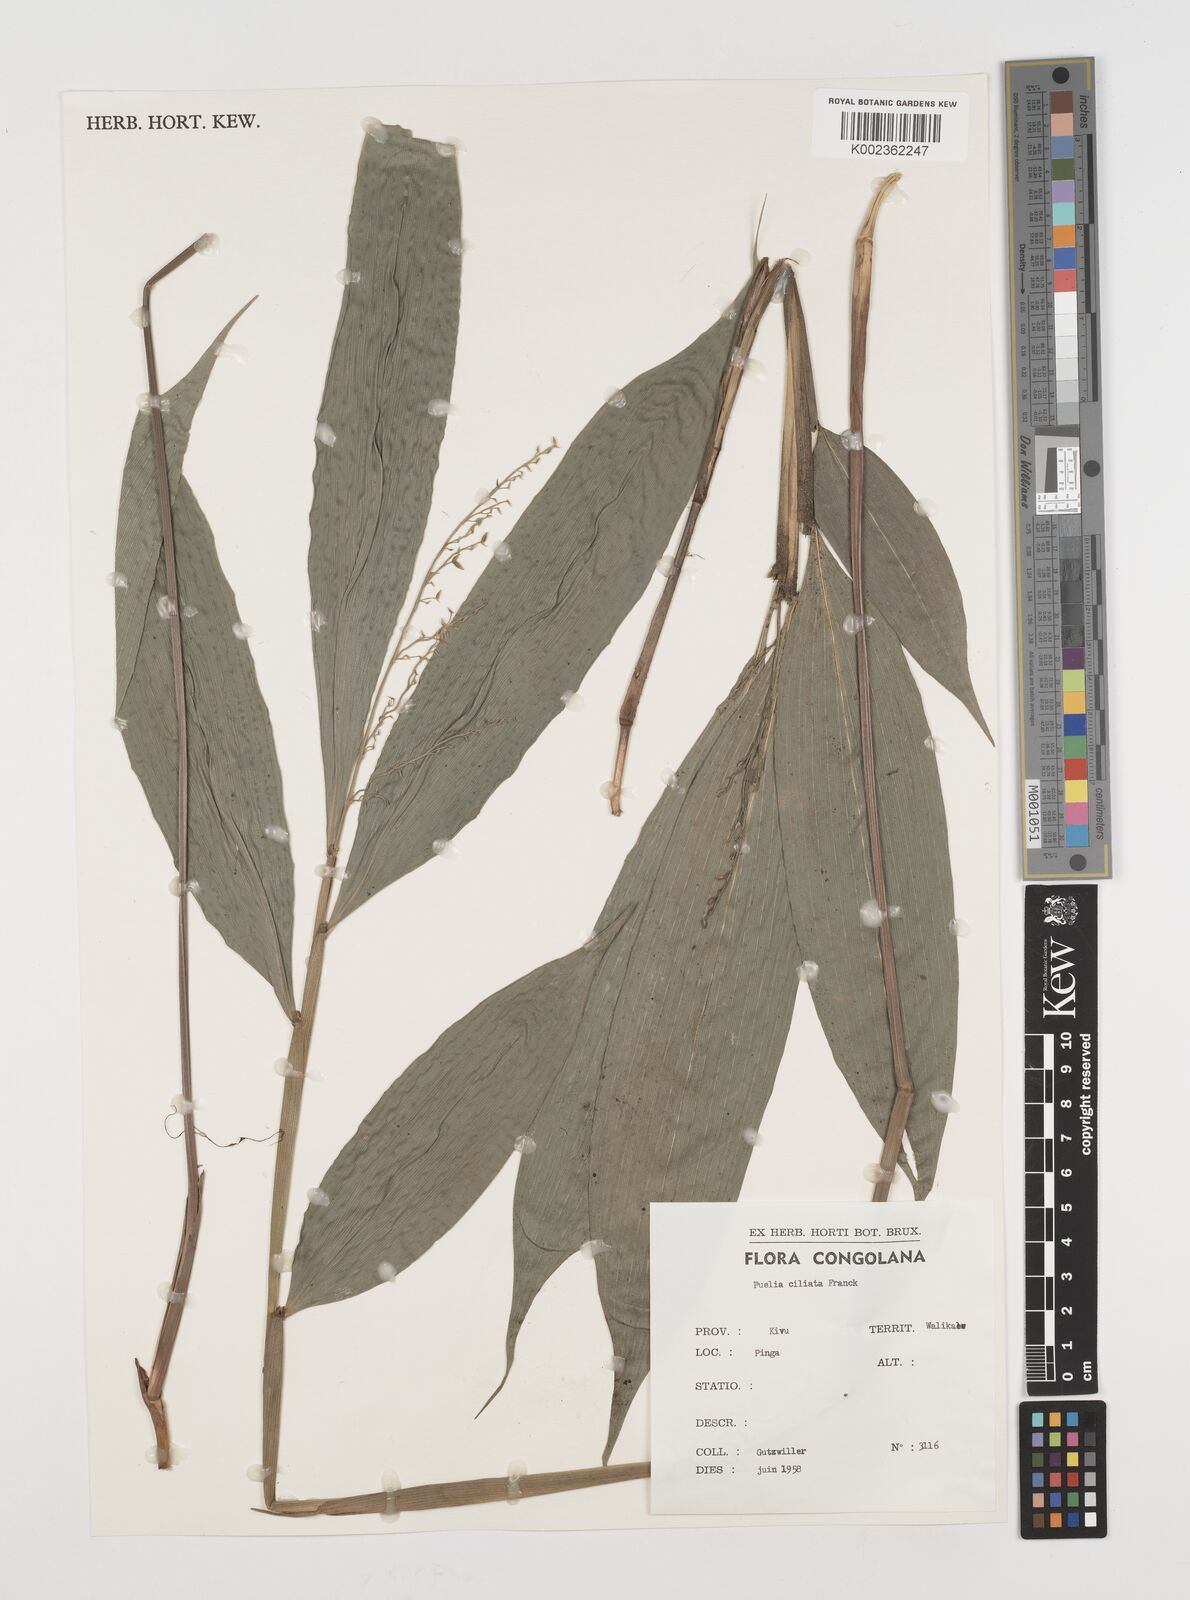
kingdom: Plantae
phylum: Tracheophyta
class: Liliopsida
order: Poales
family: Poaceae
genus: Puelia
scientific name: Puelia olyriformis
